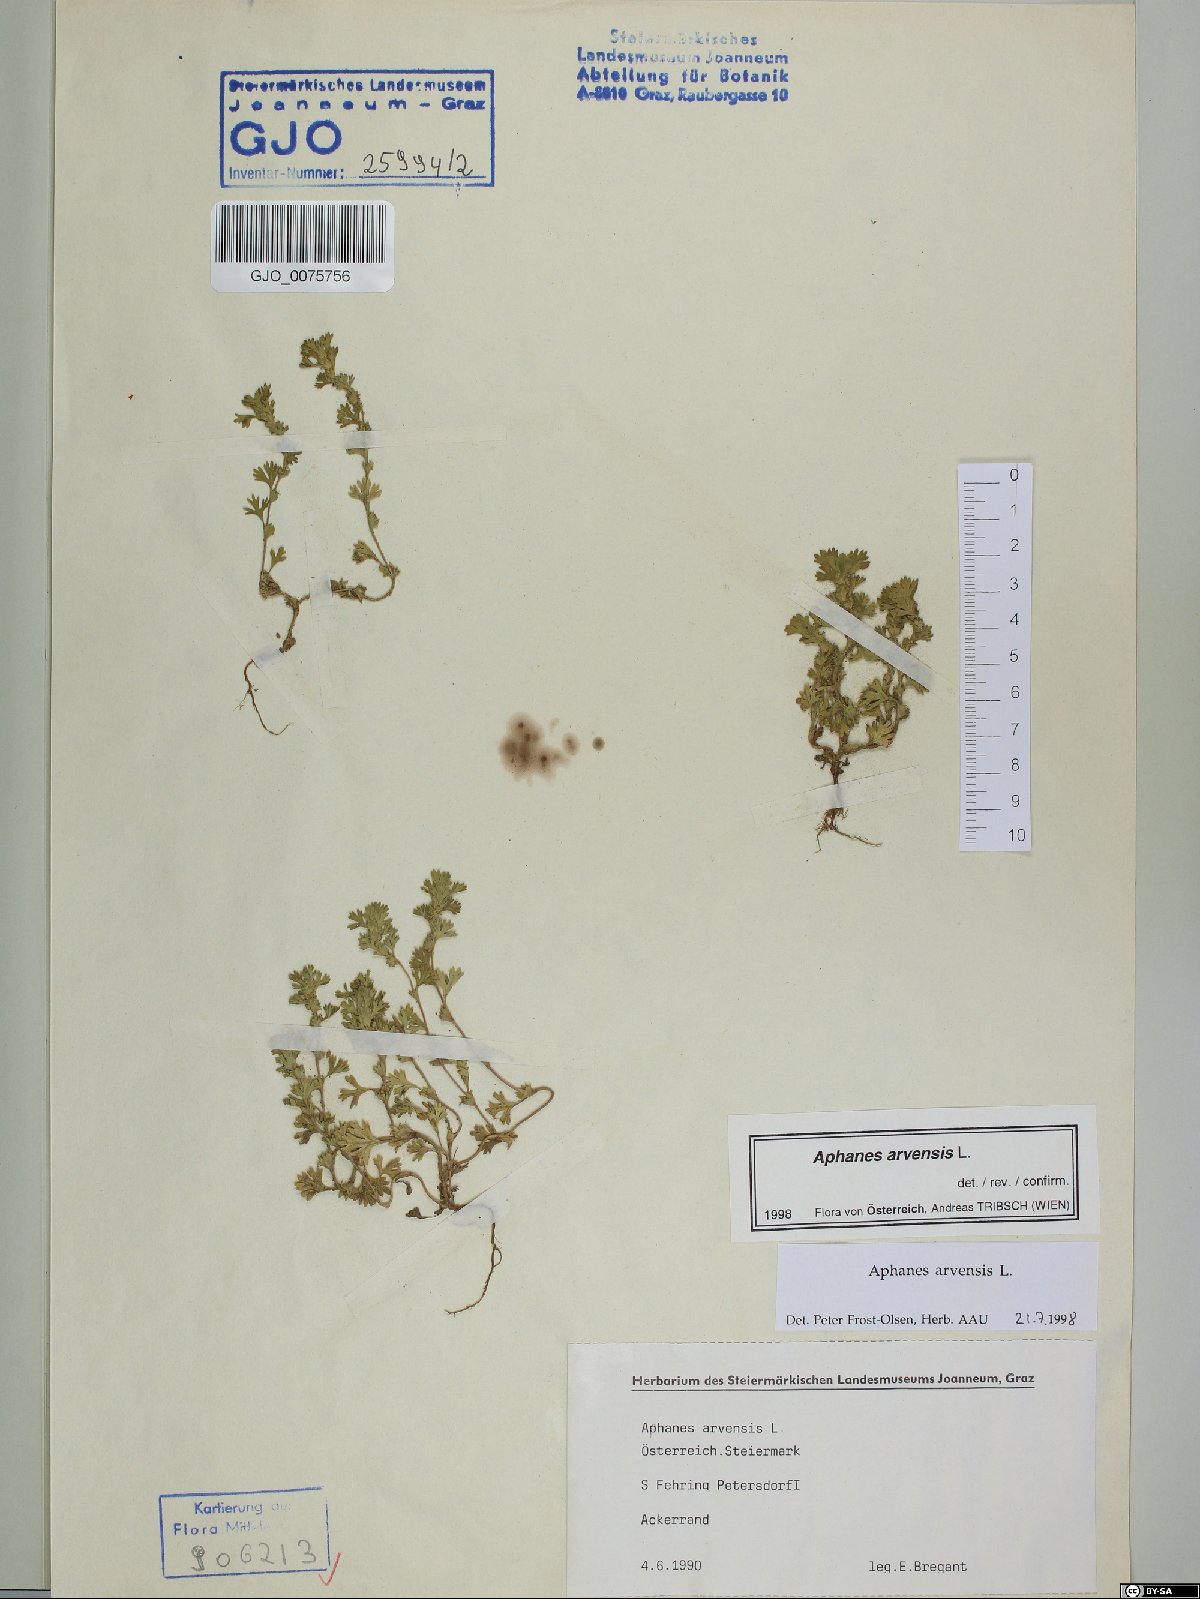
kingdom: Plantae
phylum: Tracheophyta
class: Magnoliopsida
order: Rosales
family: Rosaceae
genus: Aphanes
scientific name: Aphanes arvensis
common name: Parsley-piert
